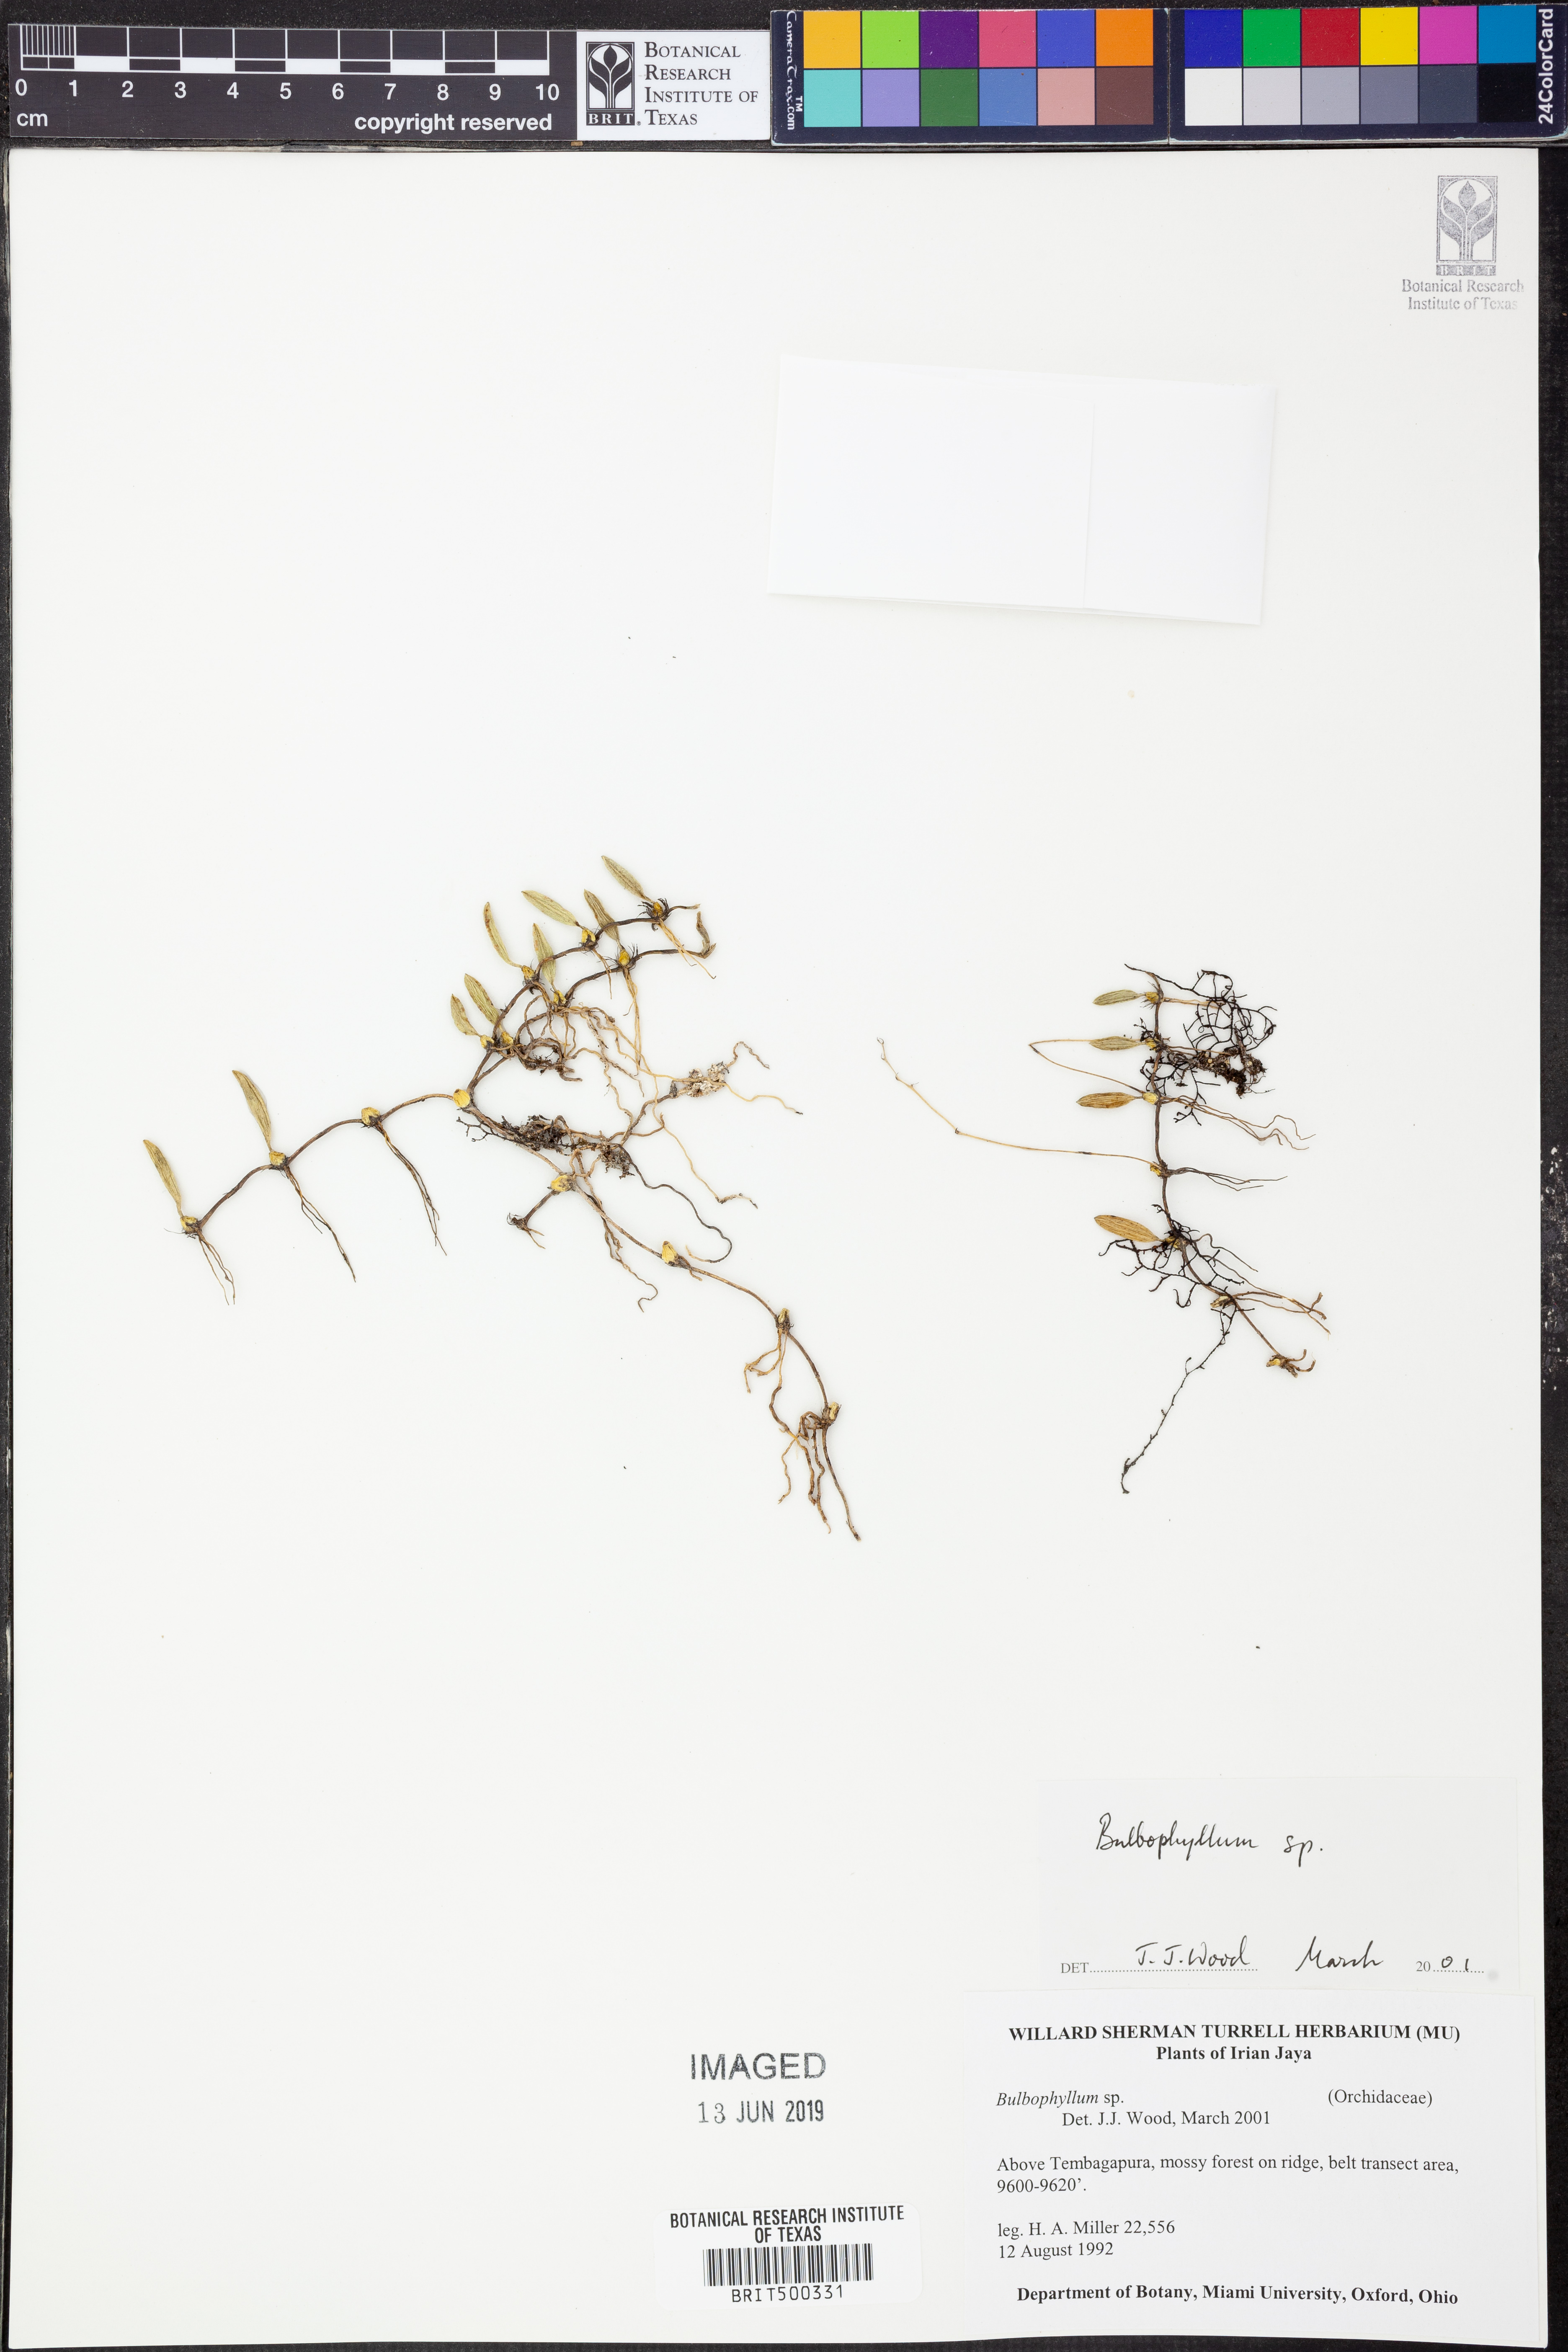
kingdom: Plantae
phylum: Tracheophyta
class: Liliopsida
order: Asparagales
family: Orchidaceae
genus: Bulbophyllum
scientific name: Bulbophyllum
